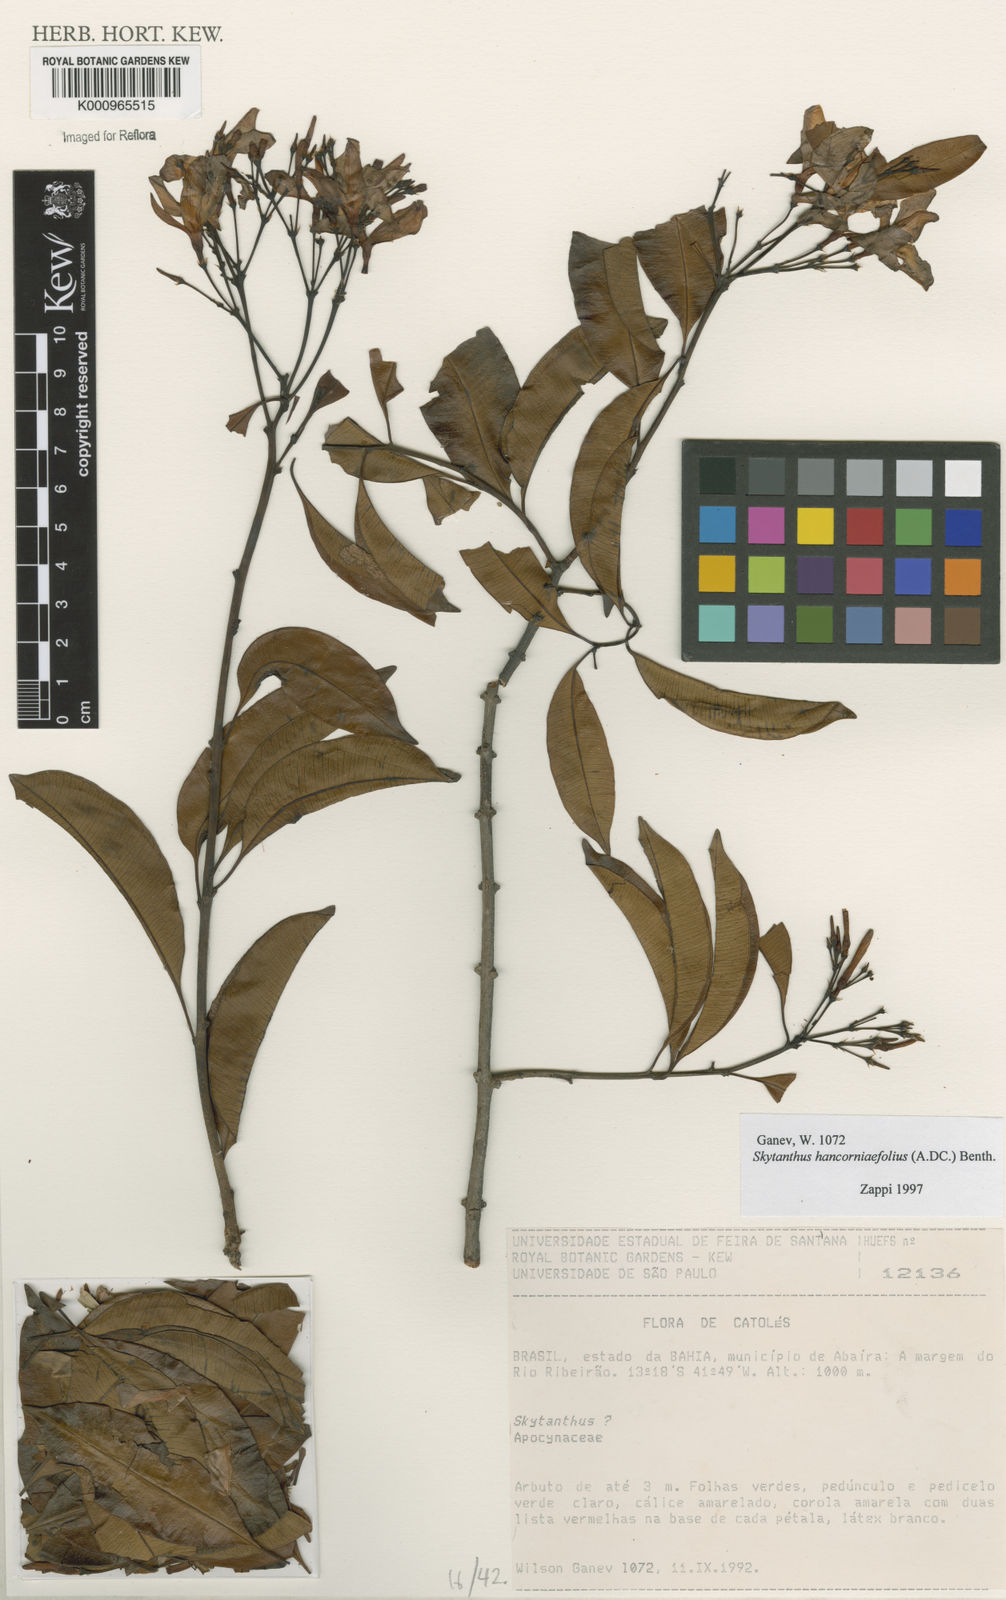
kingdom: Plantae
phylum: Tracheophyta
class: Magnoliopsida
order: Gentianales
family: Apocynaceae
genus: Skytanthus
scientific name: Skytanthus hancorniifolius
